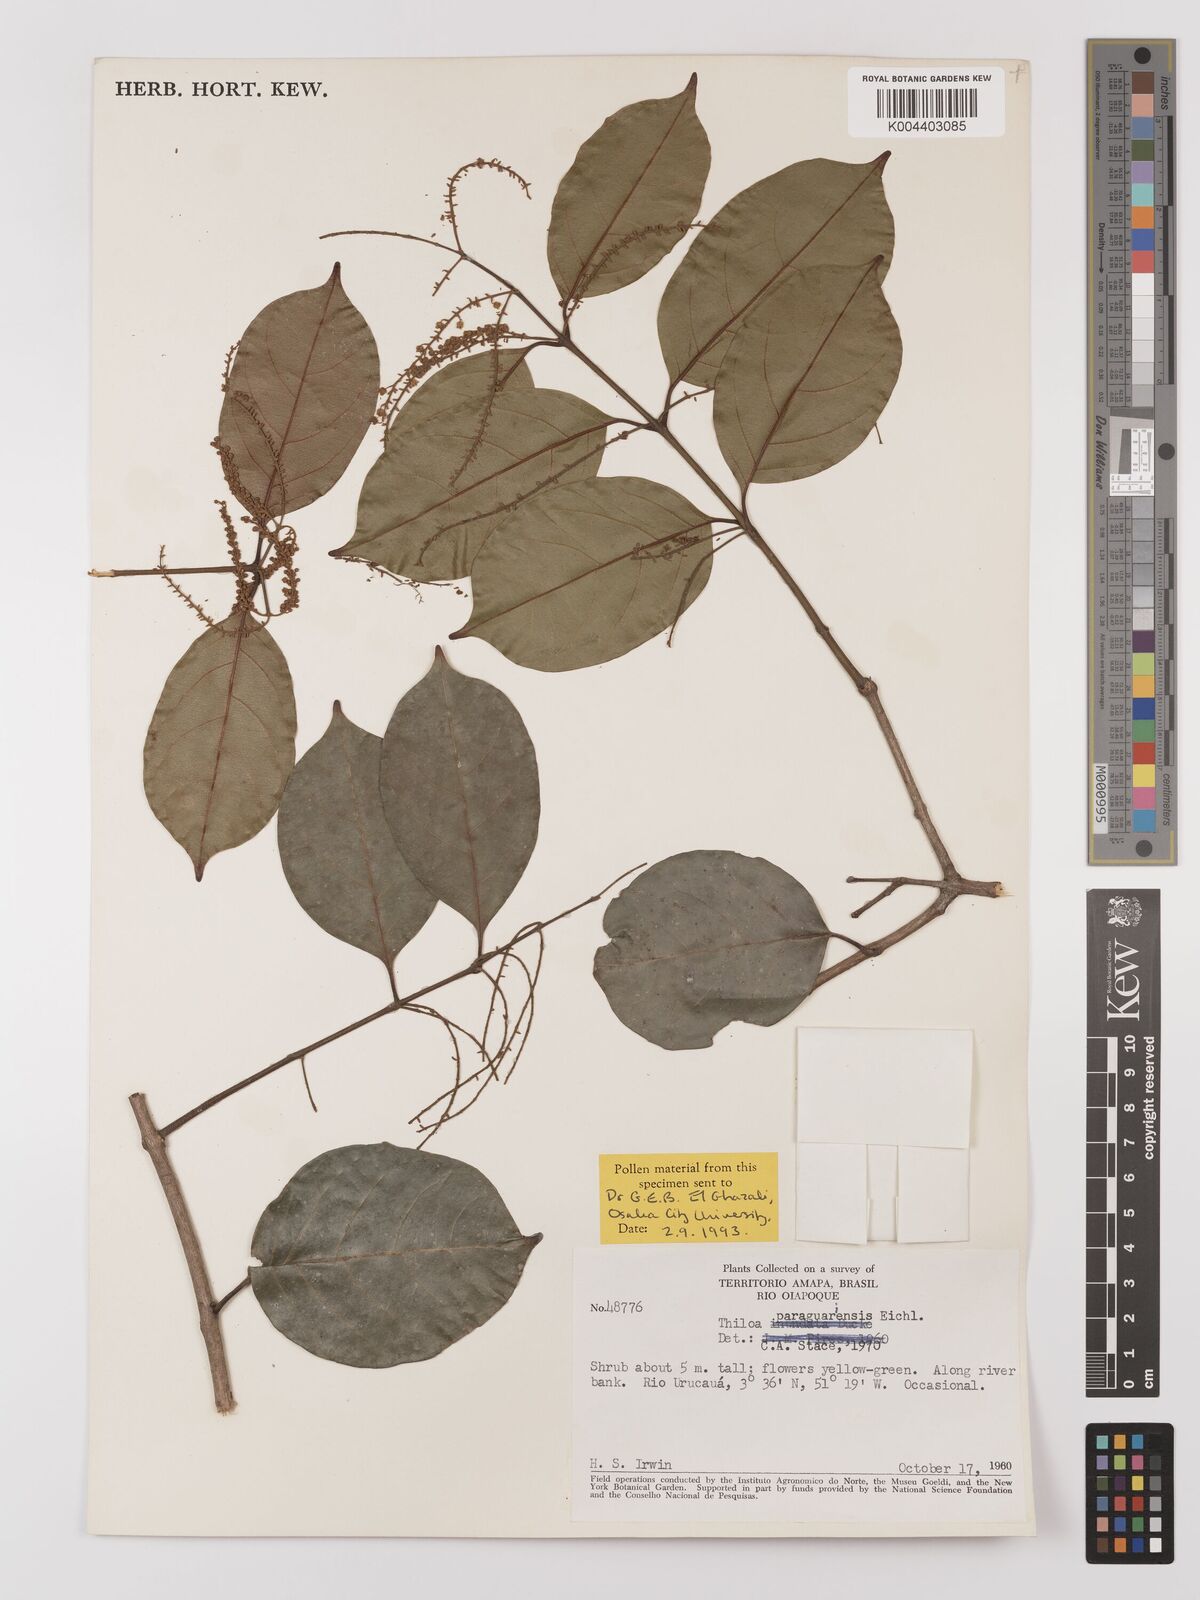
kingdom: Plantae
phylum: Tracheophyta
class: Magnoliopsida
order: Myrtales
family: Combretaceae
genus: Combretum
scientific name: Combretum paraguariense
